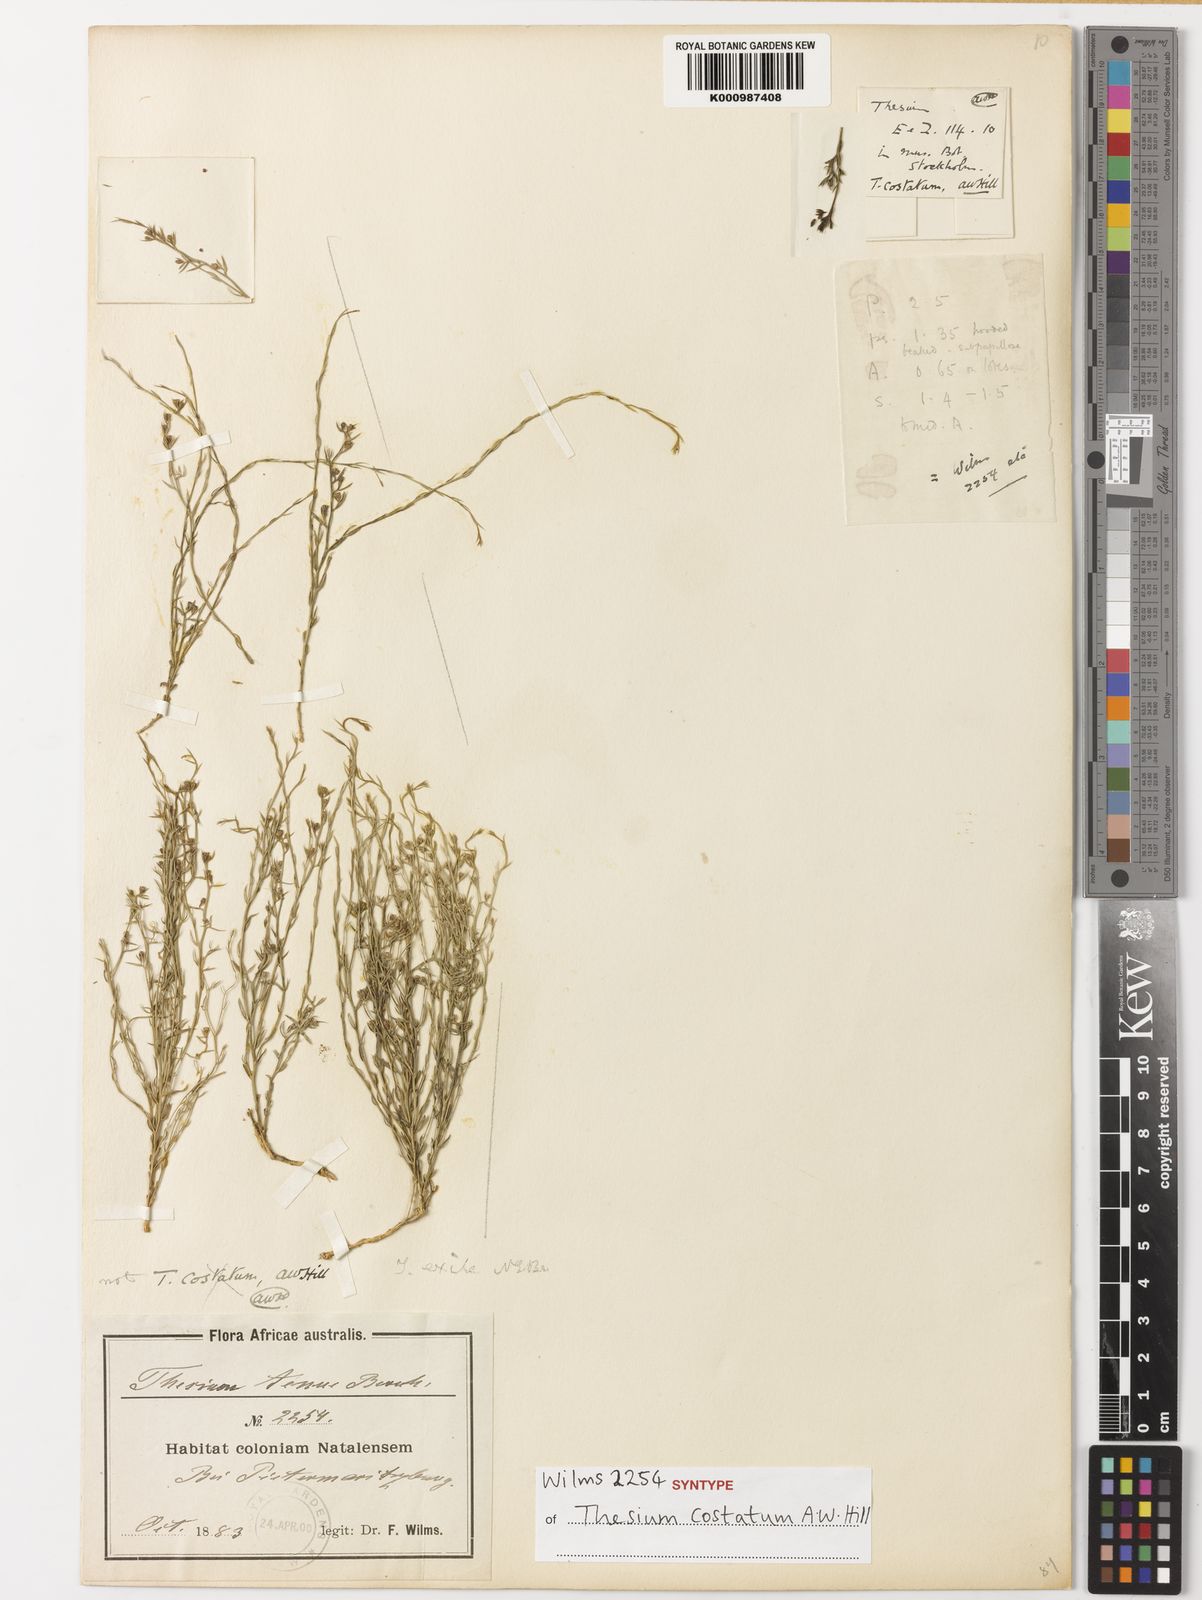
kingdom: Plantae
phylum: Tracheophyta
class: Magnoliopsida
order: Santalales
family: Thesiaceae
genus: Thesium
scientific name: Thesium costatum
